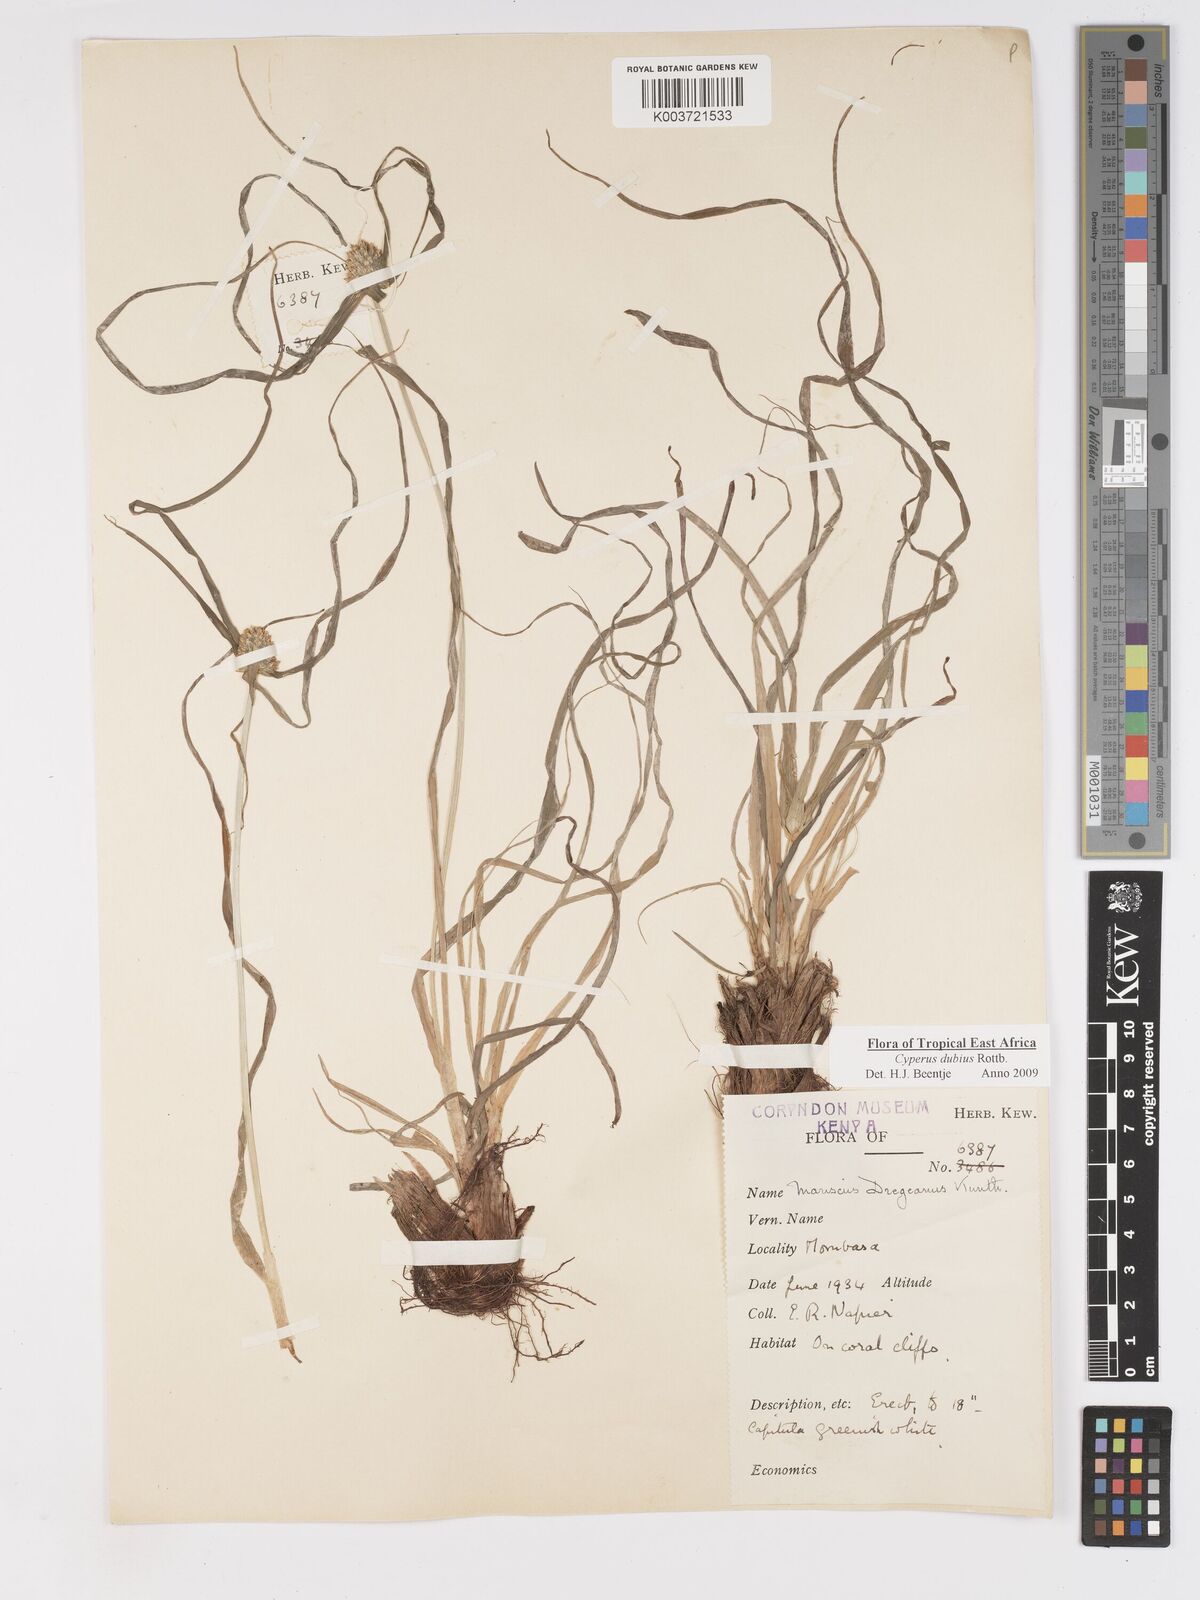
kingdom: Plantae
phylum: Tracheophyta
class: Liliopsida
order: Poales
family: Cyperaceae
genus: Cyperus
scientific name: Cyperus dubius
